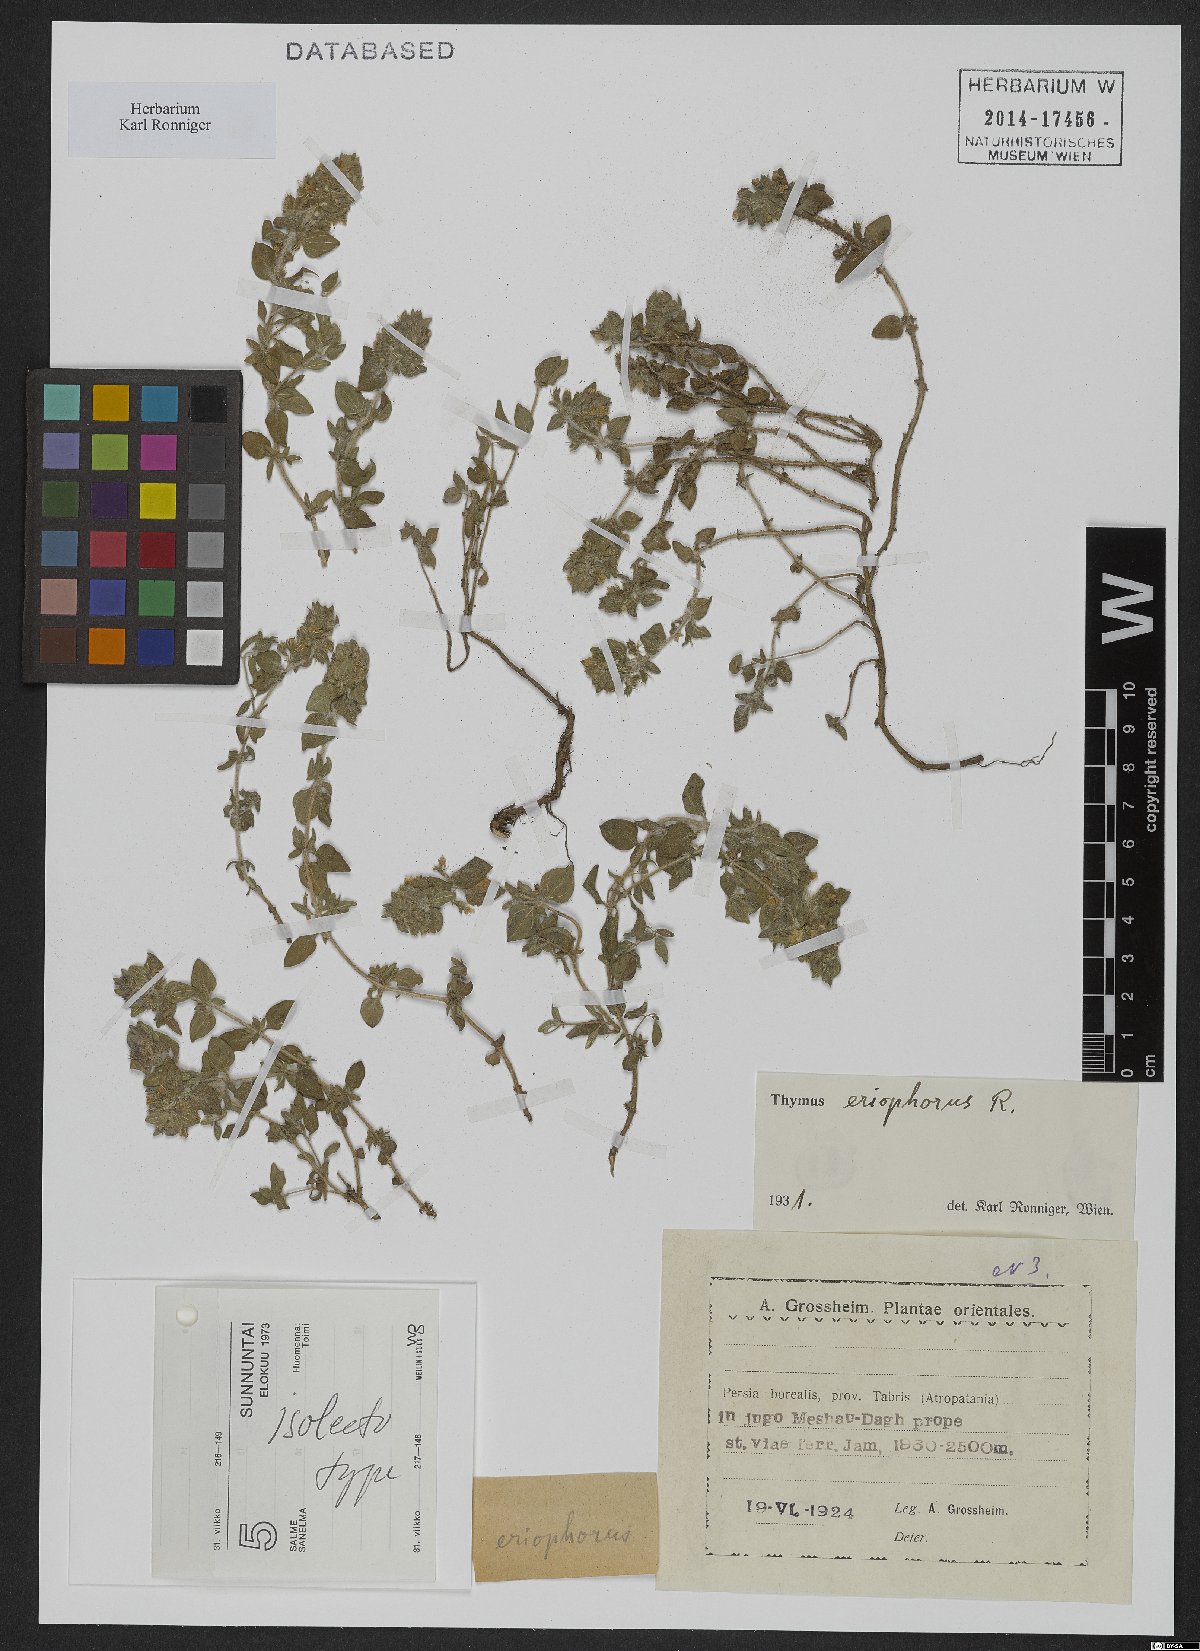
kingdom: Plantae
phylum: Tracheophyta
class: Magnoliopsida
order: Lamiales
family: Lamiaceae
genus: Thymus
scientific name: Thymus kotschyanus
